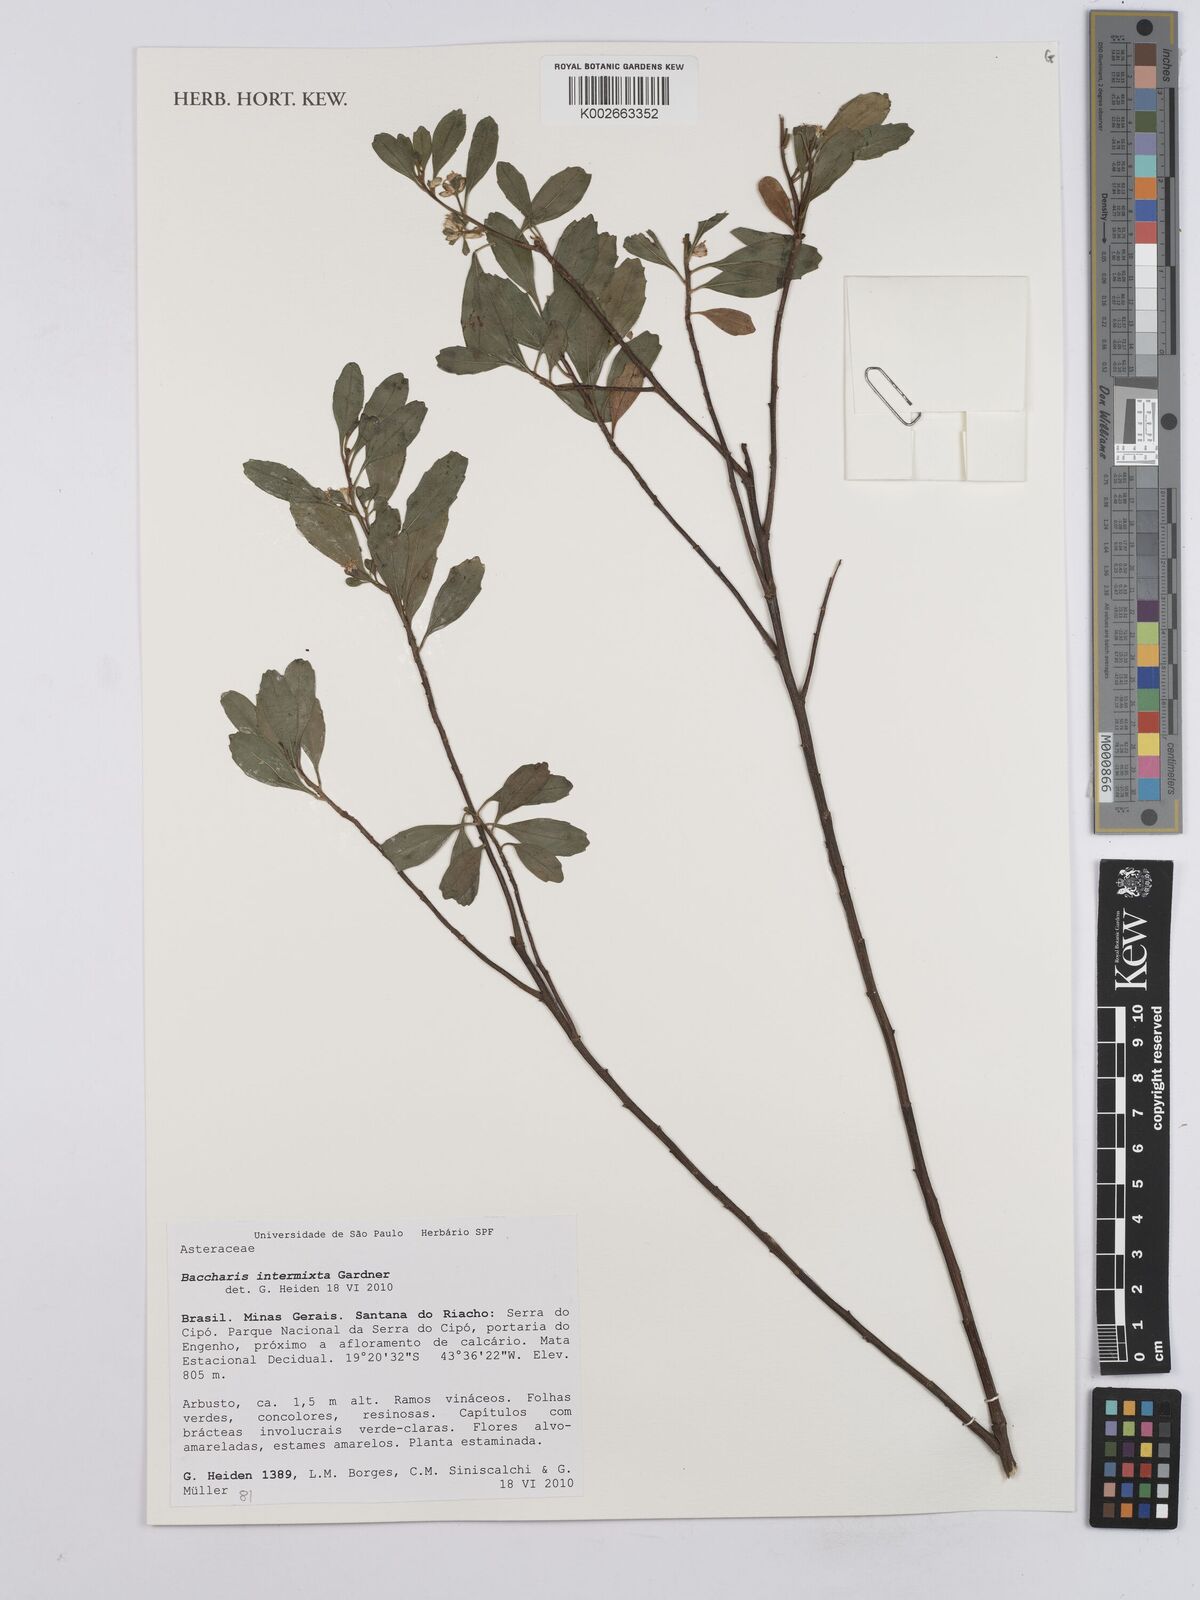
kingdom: Plantae
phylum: Tracheophyta
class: Magnoliopsida
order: Asterales
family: Asteraceae
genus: Baccharis
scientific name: Baccharis intermixta
